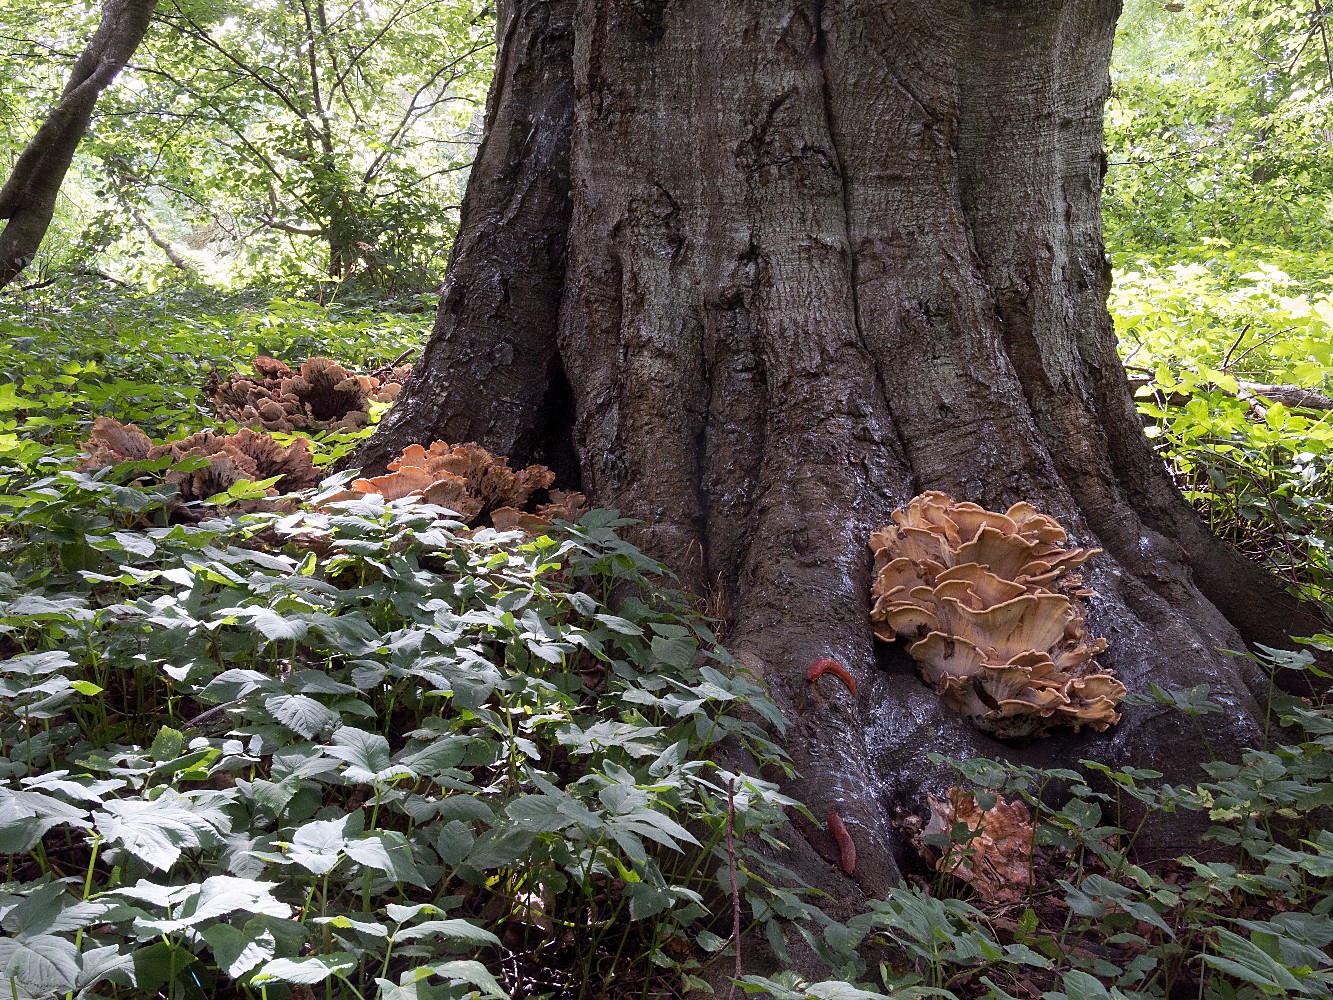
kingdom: Fungi
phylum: Basidiomycota
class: Agaricomycetes
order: Polyporales
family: Meripilaceae
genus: Meripilus
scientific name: Meripilus giganteus
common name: kæmpeporesvamp
